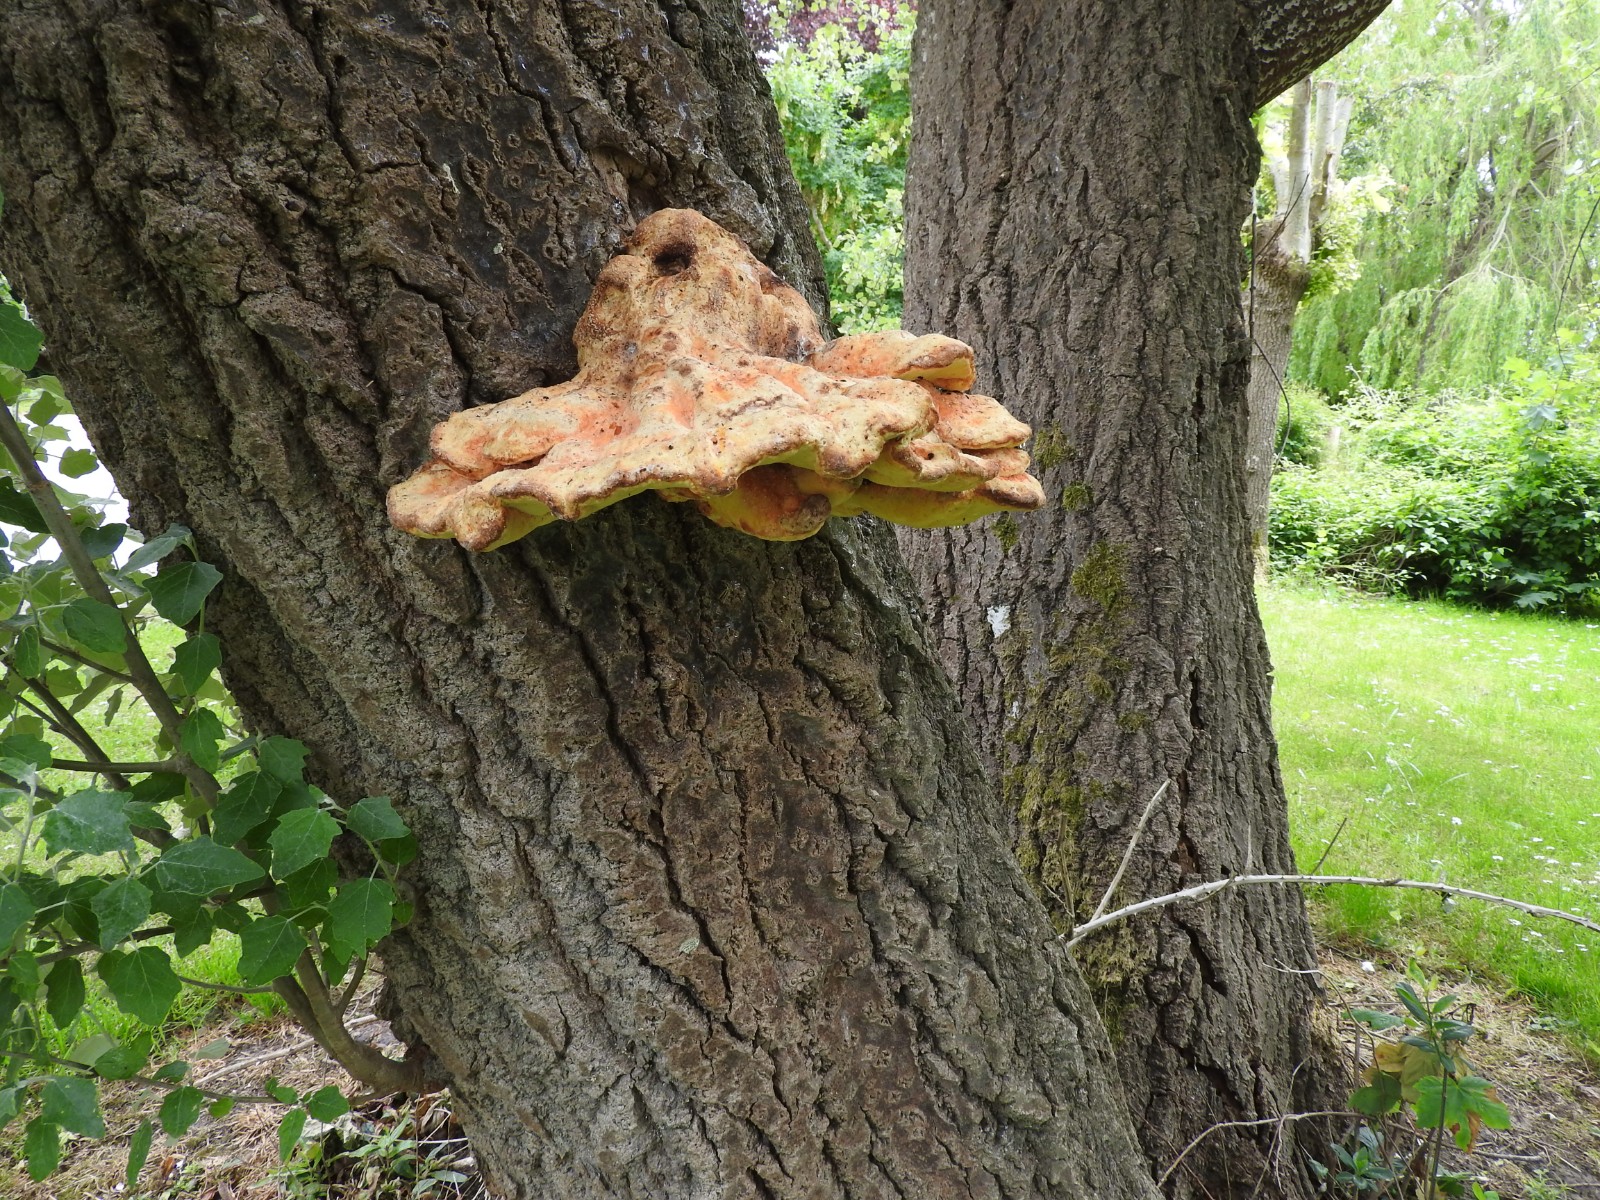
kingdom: Fungi
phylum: Basidiomycota
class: Agaricomycetes
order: Polyporales
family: Laetiporaceae
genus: Laetiporus
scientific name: Laetiporus sulphureus
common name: svovlporesvamp
